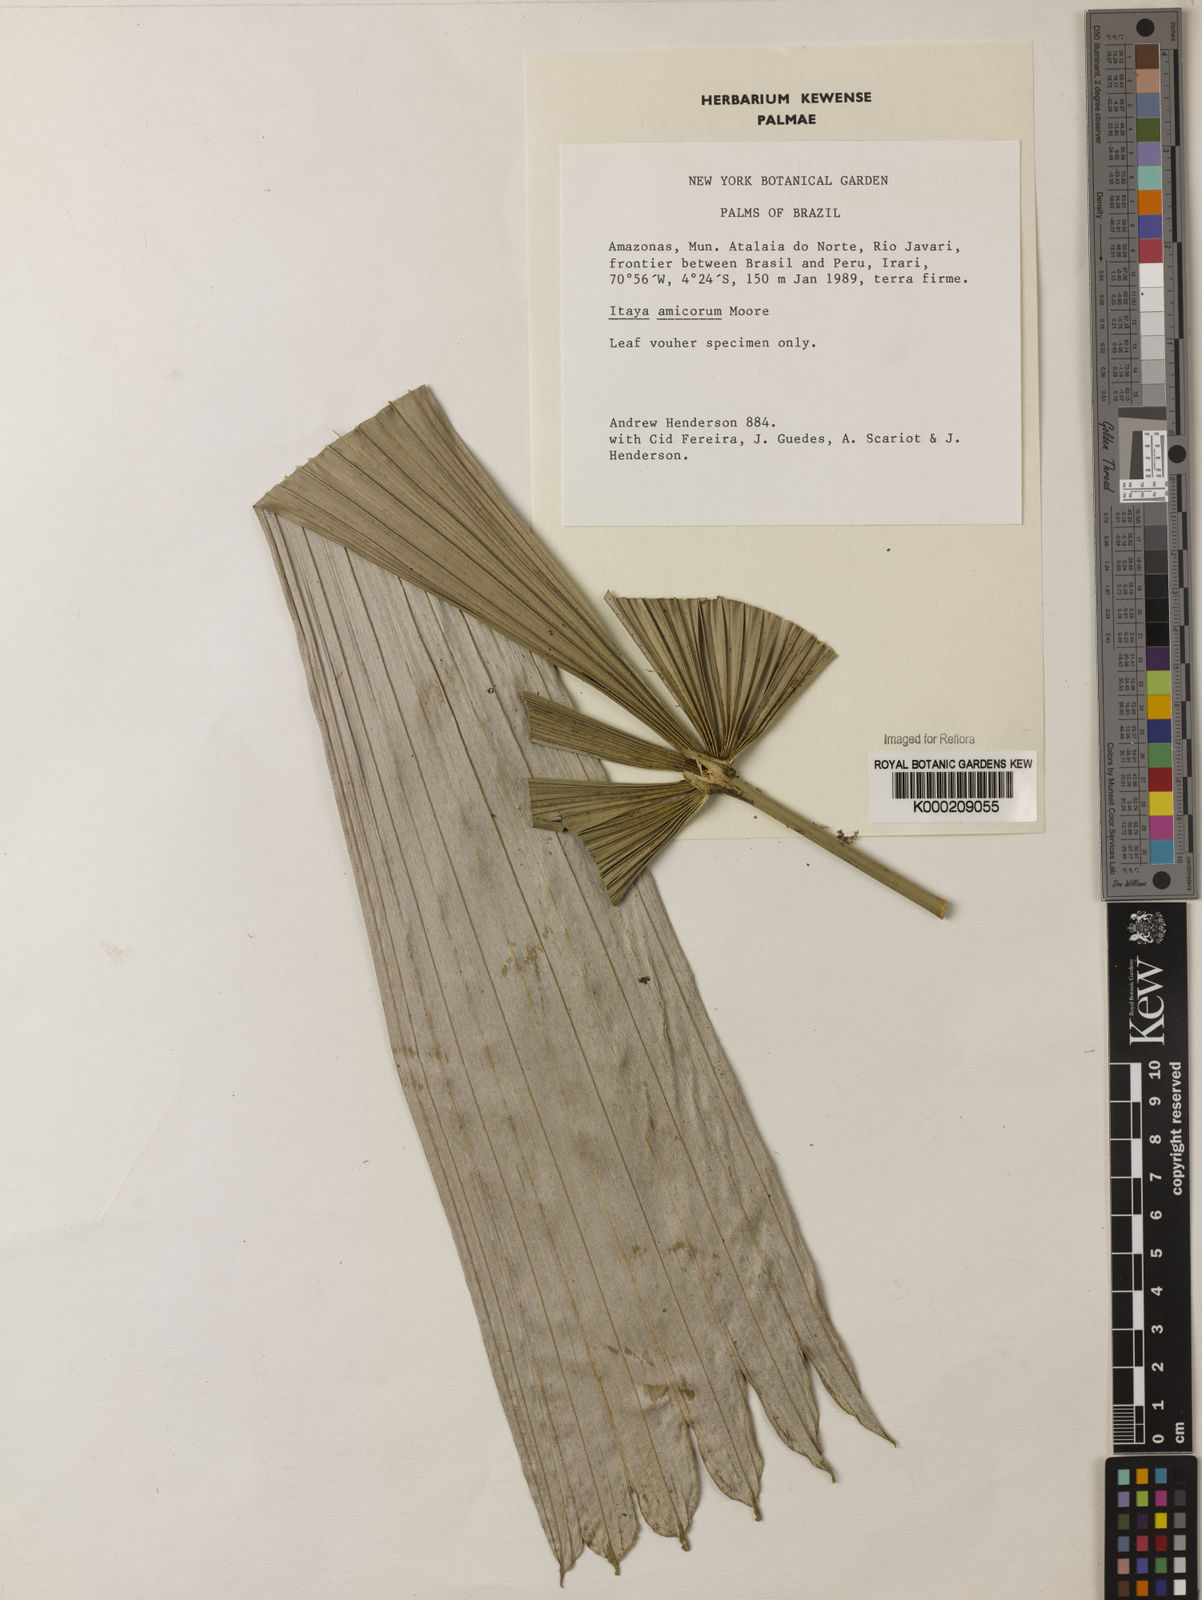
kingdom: Plantae
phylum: Tracheophyta
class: Liliopsida
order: Arecales
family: Arecaceae
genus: Itaya
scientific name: Itaya amicorum
